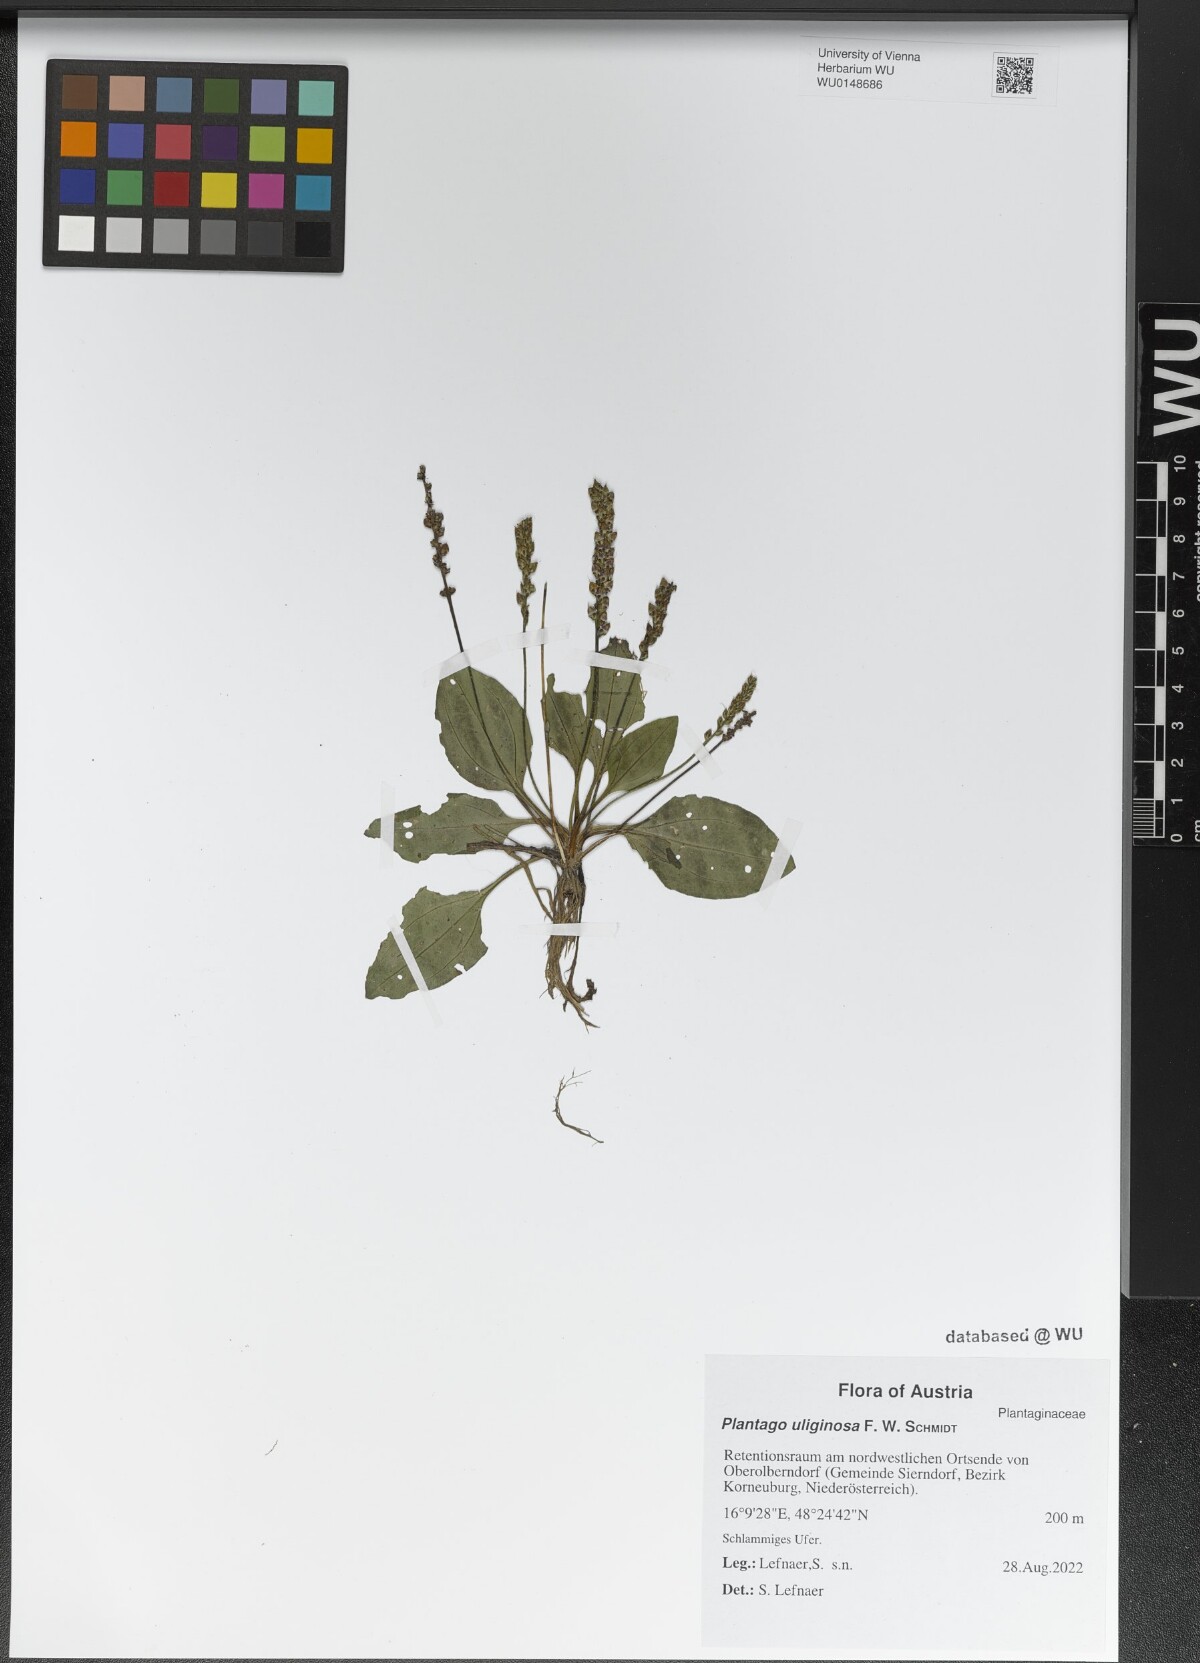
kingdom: Plantae
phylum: Tracheophyta
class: Magnoliopsida
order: Lamiales
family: Plantaginaceae
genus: Plantago
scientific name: Plantago uliginosa
